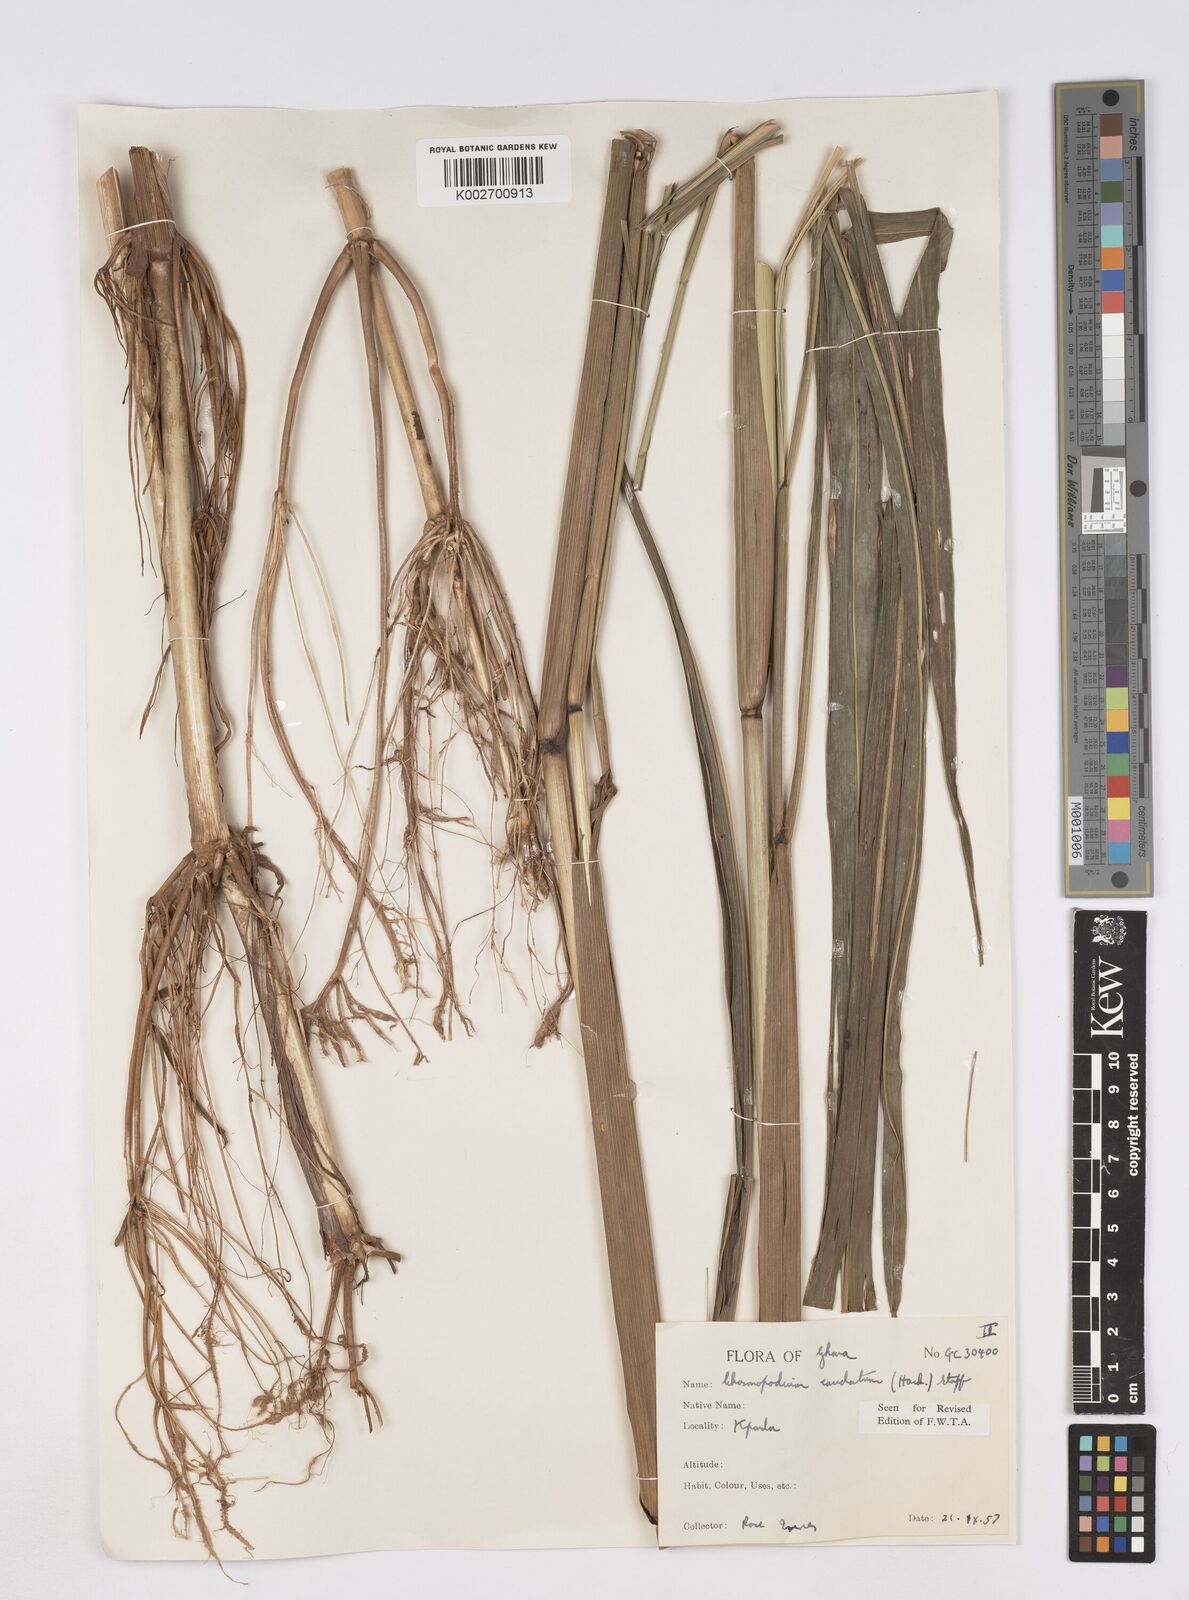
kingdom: Plantae
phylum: Tracheophyta
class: Liliopsida
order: Poales
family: Poaceae
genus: Chasmopodium
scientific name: Chasmopodium caudatum
